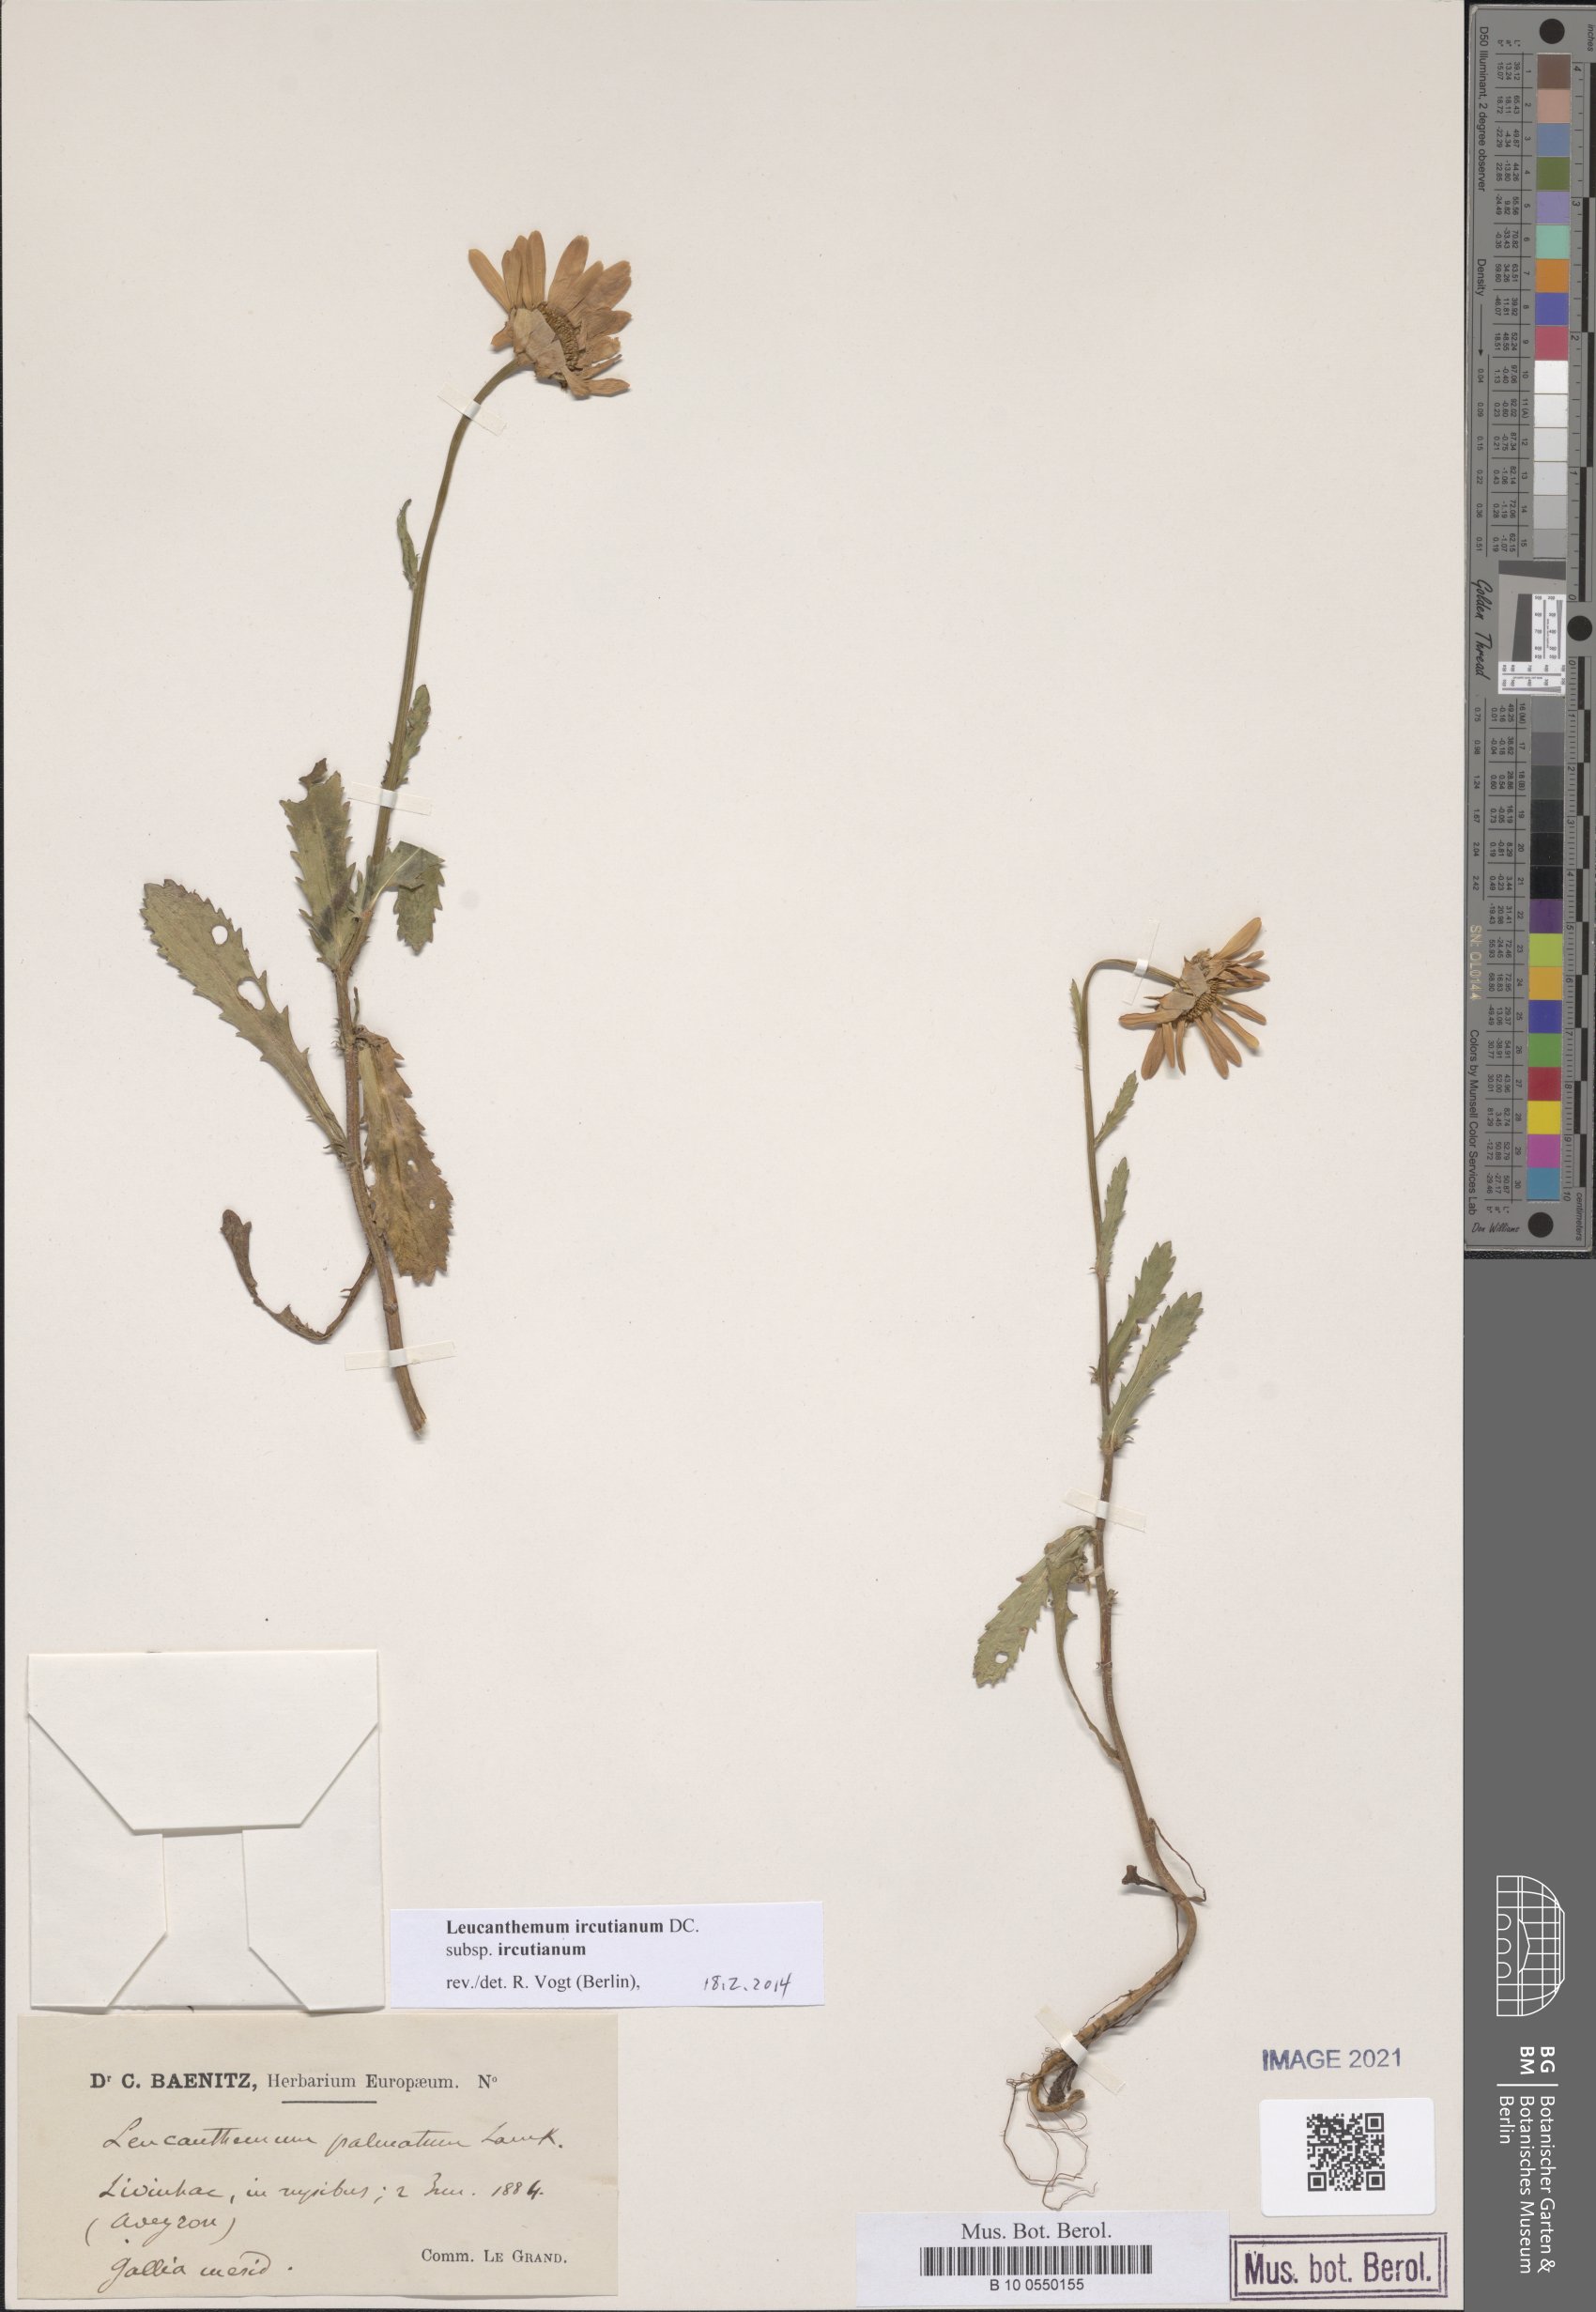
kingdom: Plantae
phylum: Tracheophyta
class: Magnoliopsida
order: Asterales
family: Asteraceae
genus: Leucanthemum
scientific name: Leucanthemum ircutianum
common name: Daisy
